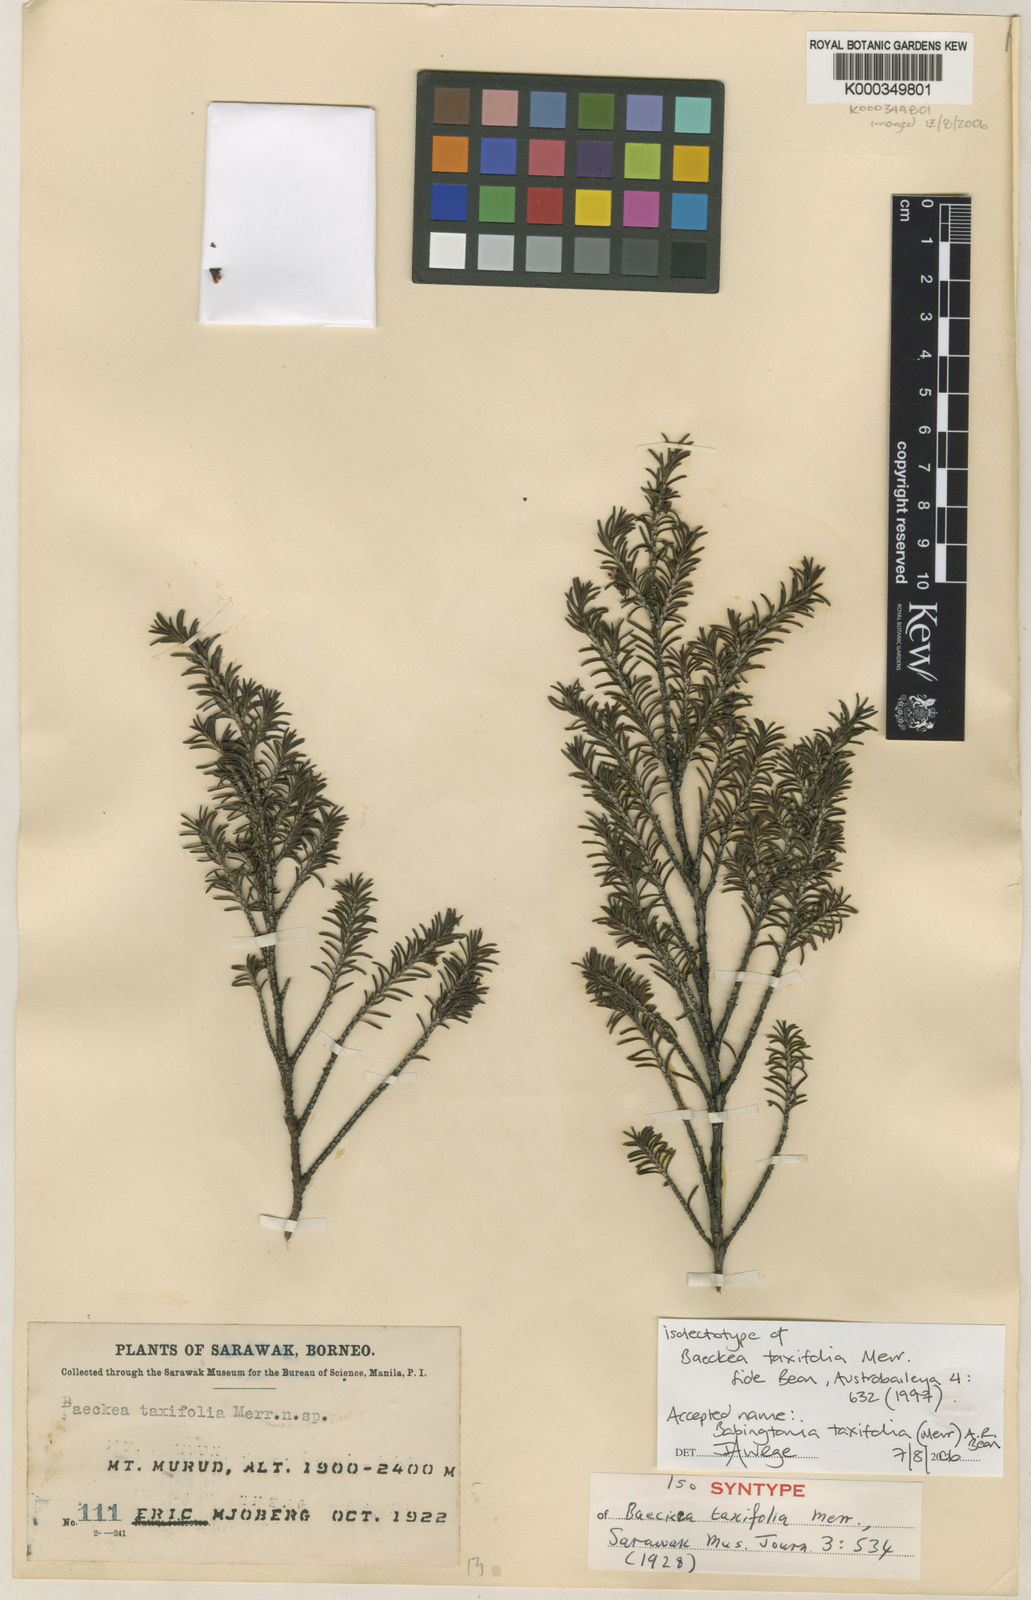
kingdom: Plantae
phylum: Tracheophyta
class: Magnoliopsida
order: Myrtales
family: Myrtaceae
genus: Seorsus
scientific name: Seorsus taxifolius
